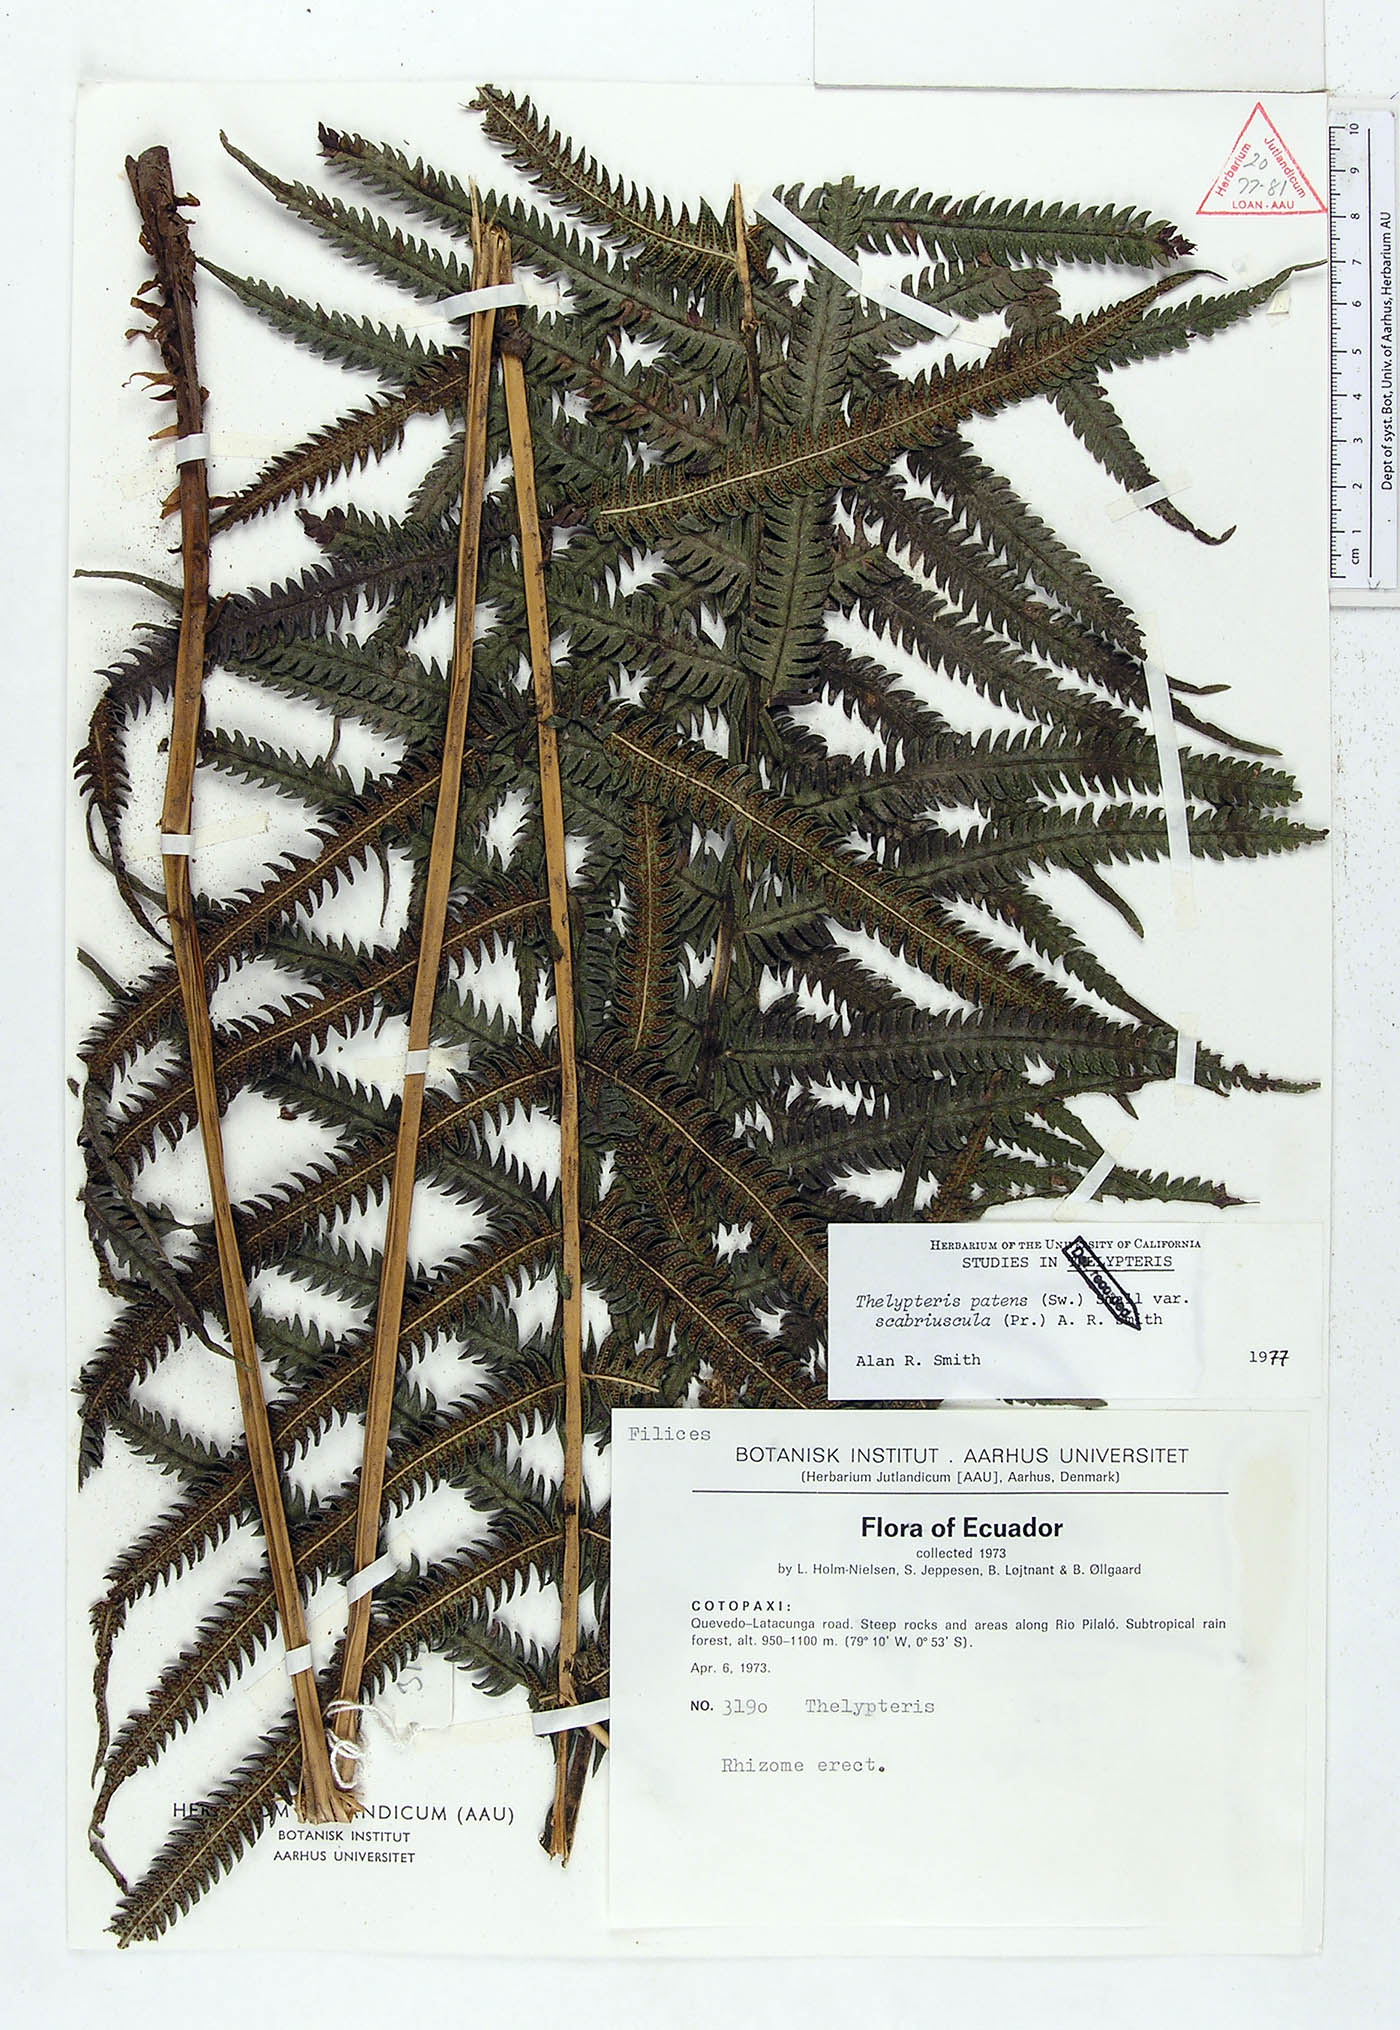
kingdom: Plantae
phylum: Tracheophyta
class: Polypodiopsida
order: Polypodiales
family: Thelypteridaceae
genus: Pelazoneuron
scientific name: Pelazoneuron patens
